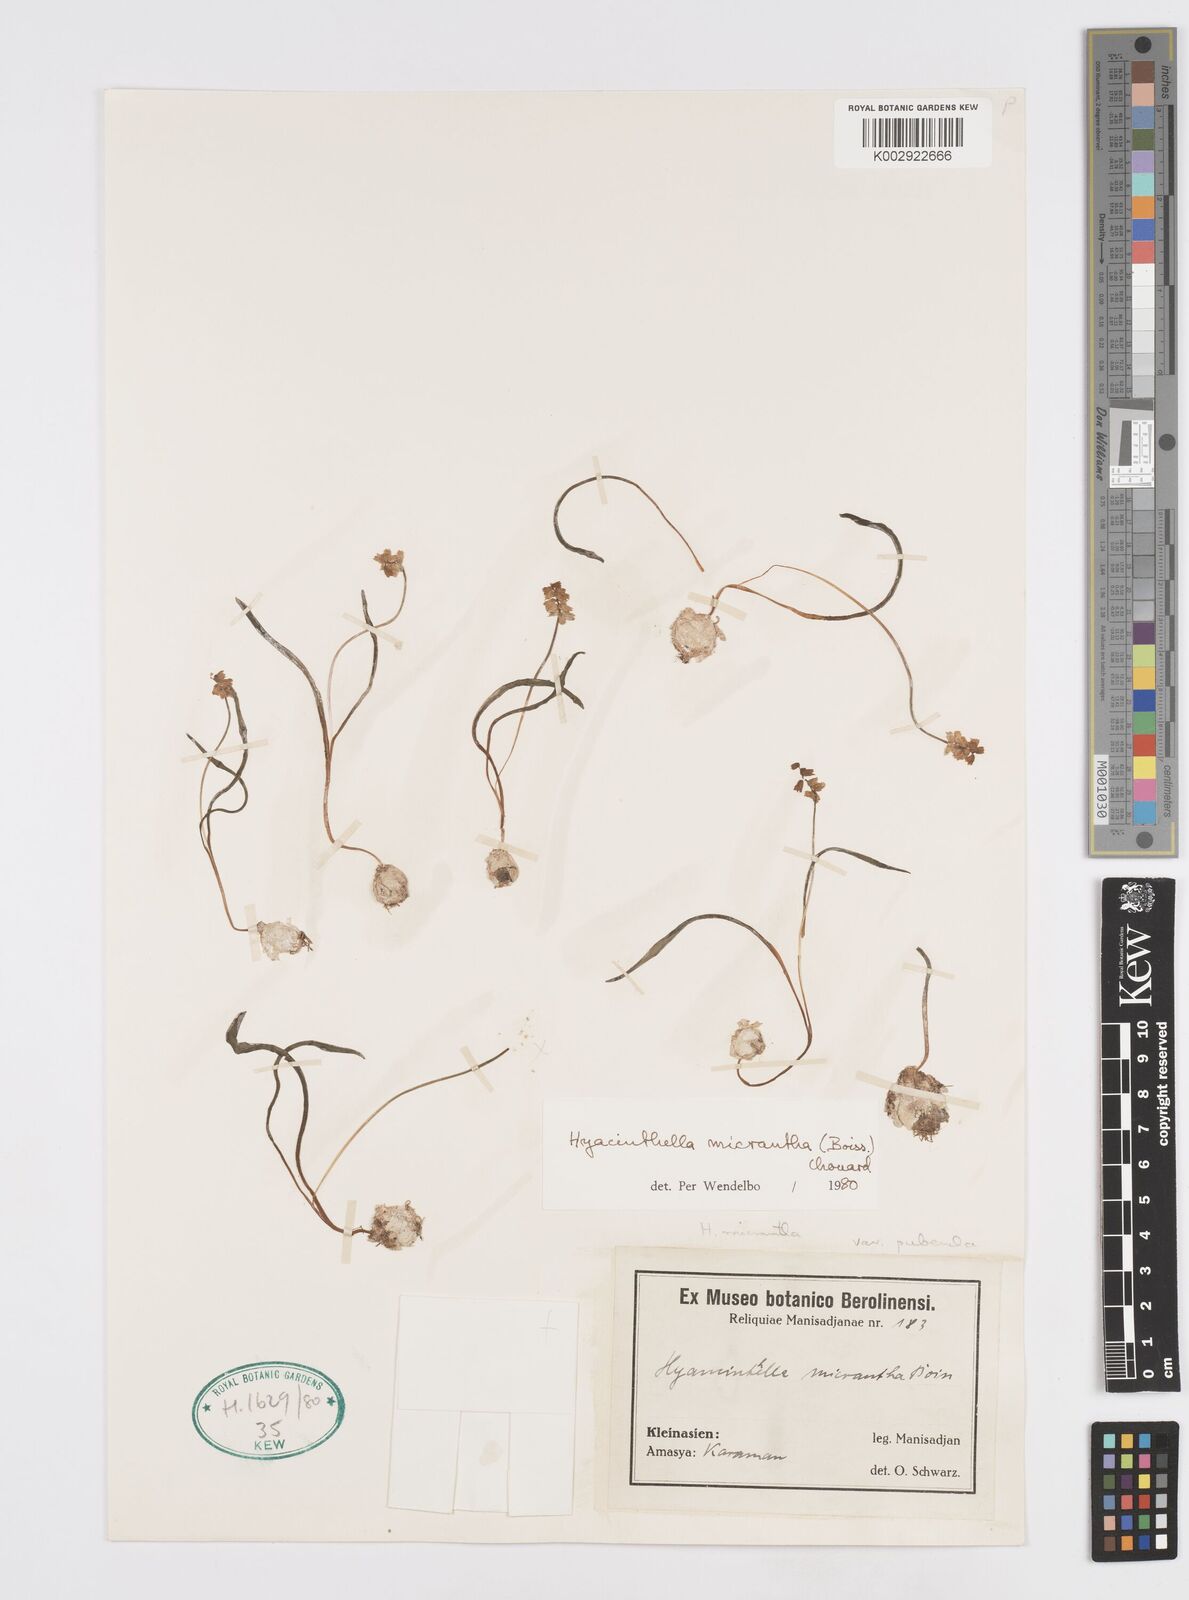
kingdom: Plantae
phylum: Tracheophyta
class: Liliopsida
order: Asparagales
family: Asparagaceae
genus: Hyacinthella
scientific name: Hyacinthella micrantha
